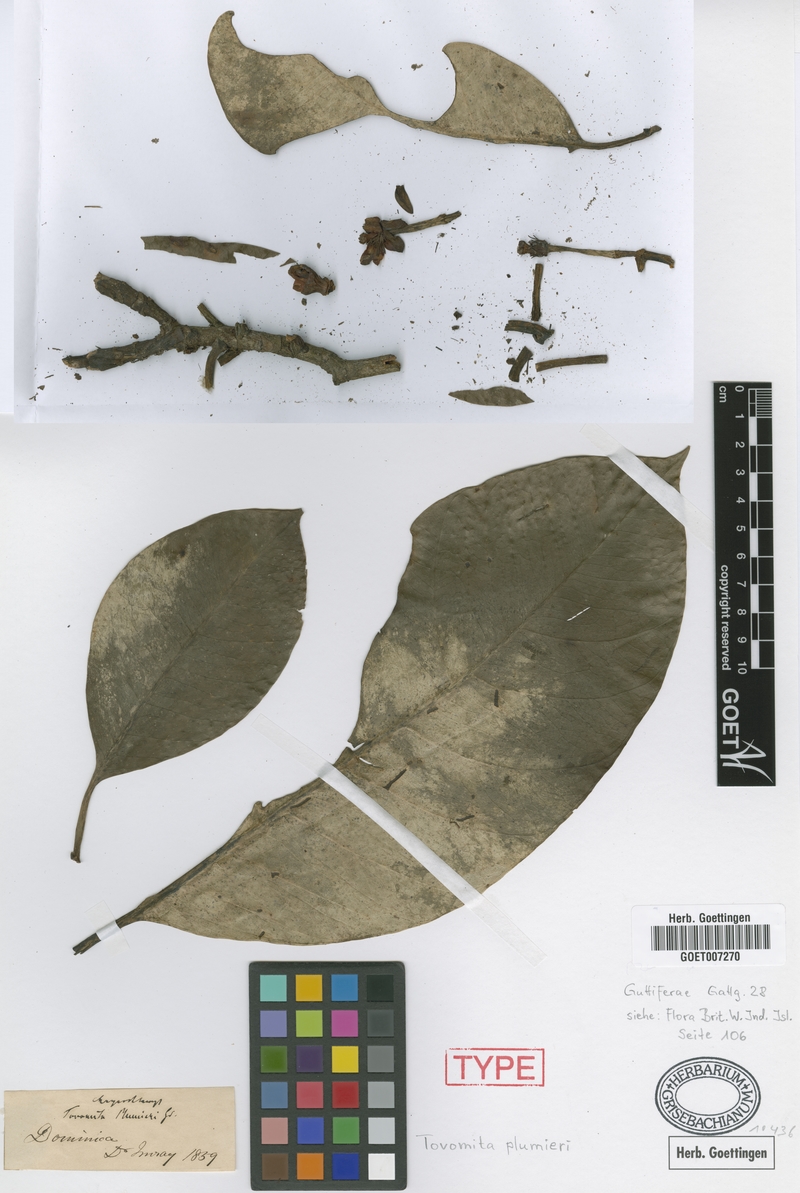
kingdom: Plantae
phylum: Tracheophyta
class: Magnoliopsida
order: Malpighiales
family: Clusiaceae
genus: Tovomita
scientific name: Tovomita plumieri
